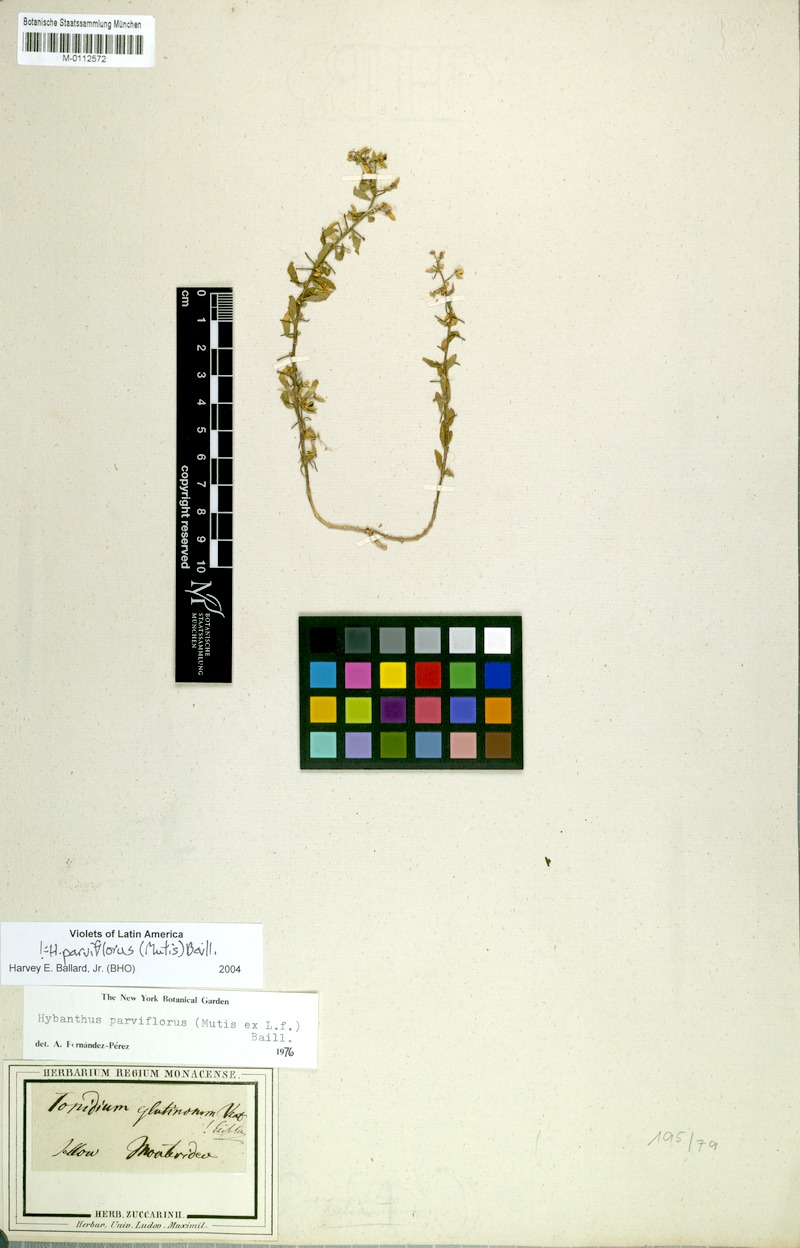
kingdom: Plantae
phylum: Tracheophyta
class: Magnoliopsida
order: Malpighiales
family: Violaceae
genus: Pombalia
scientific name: Pombalia parviflora
